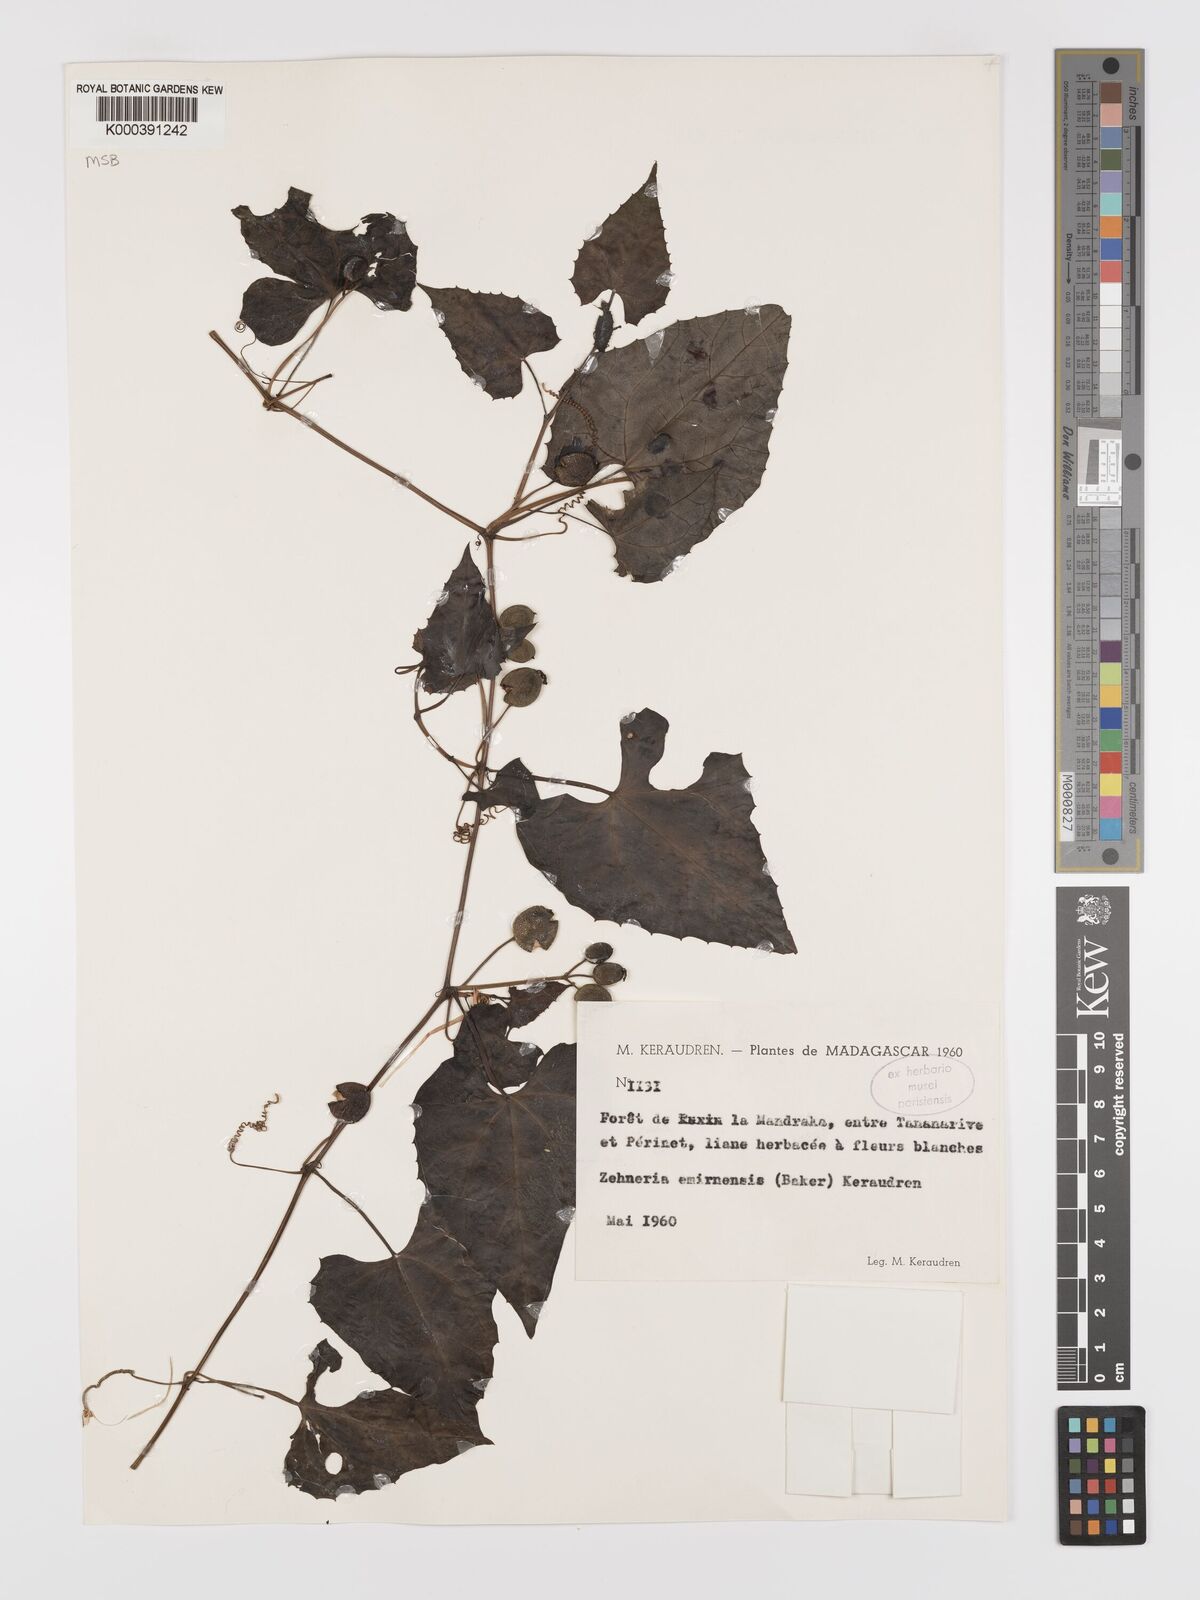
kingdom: Plantae
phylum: Tracheophyta
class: Magnoliopsida
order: Cucurbitales
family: Cucurbitaceae
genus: Zehneria
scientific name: Zehneria emirnensis
